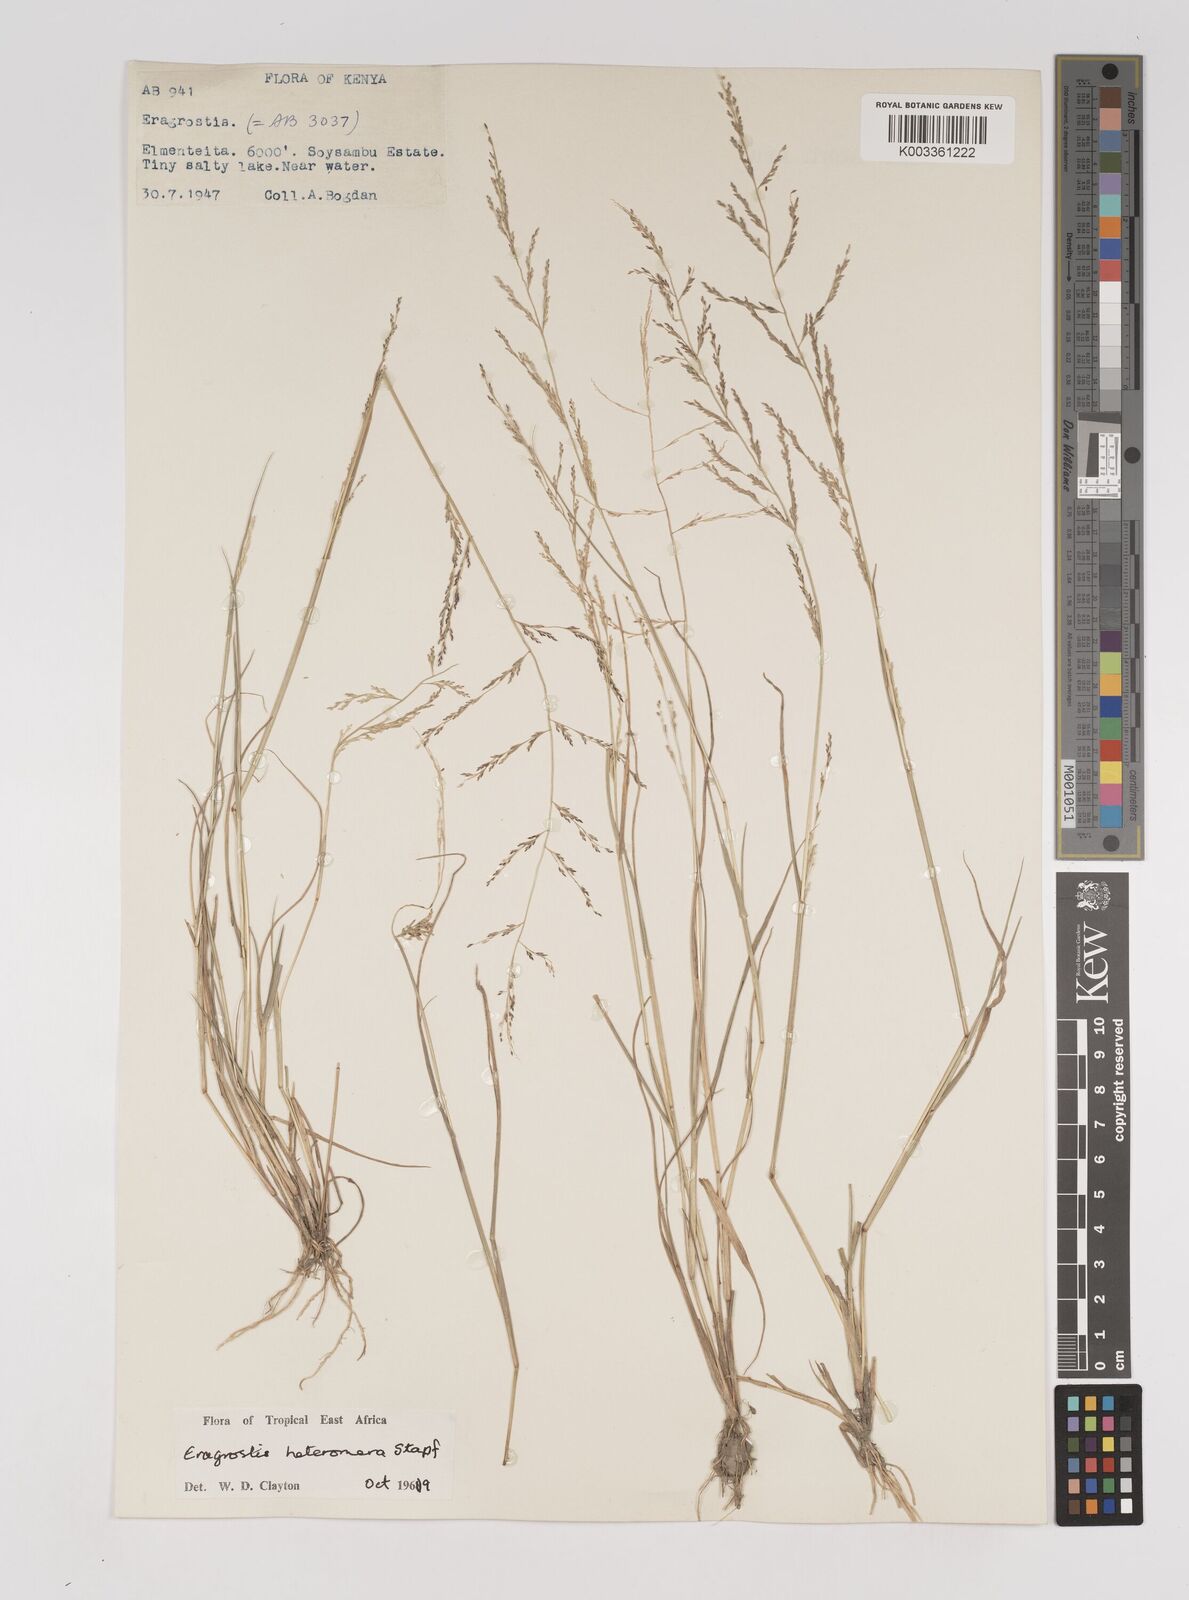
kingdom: Plantae
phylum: Tracheophyta
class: Liliopsida
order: Poales
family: Poaceae
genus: Eragrostis
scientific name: Eragrostis heteromera
